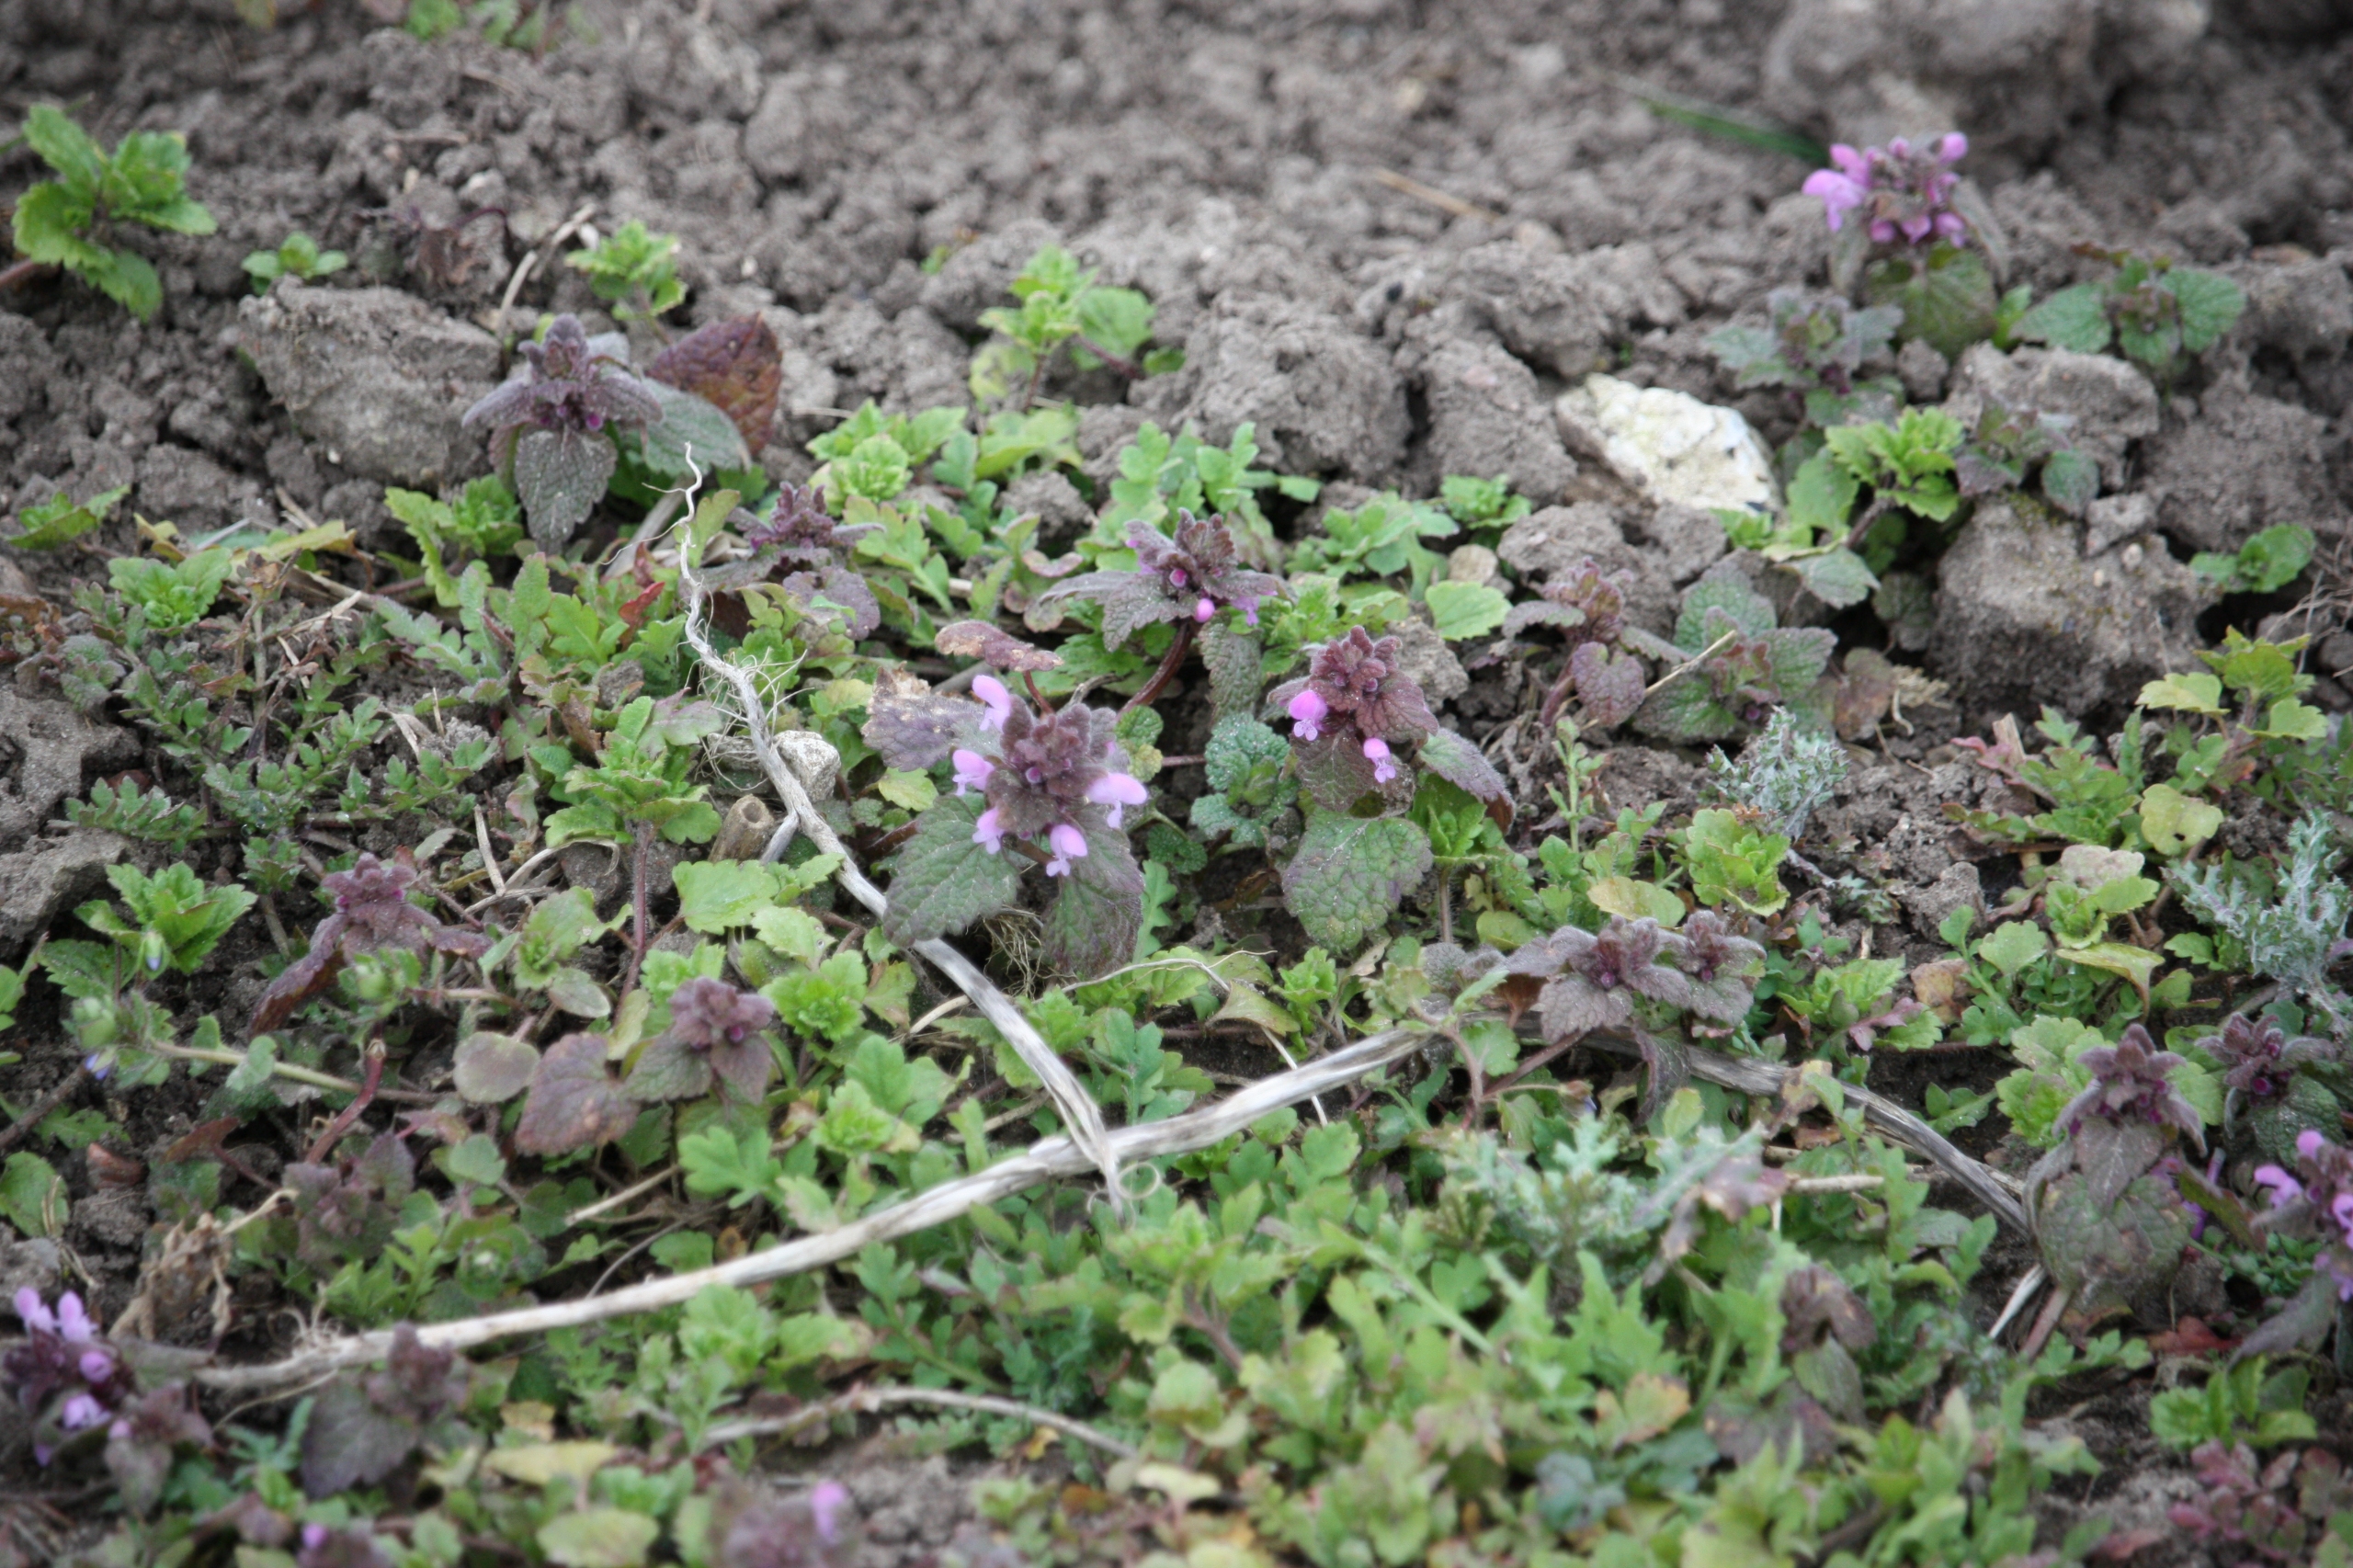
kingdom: Plantae
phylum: Tracheophyta
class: Magnoliopsida
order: Lamiales
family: Lamiaceae
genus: Lamium
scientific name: Lamium purpureum
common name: Rød tvetand
